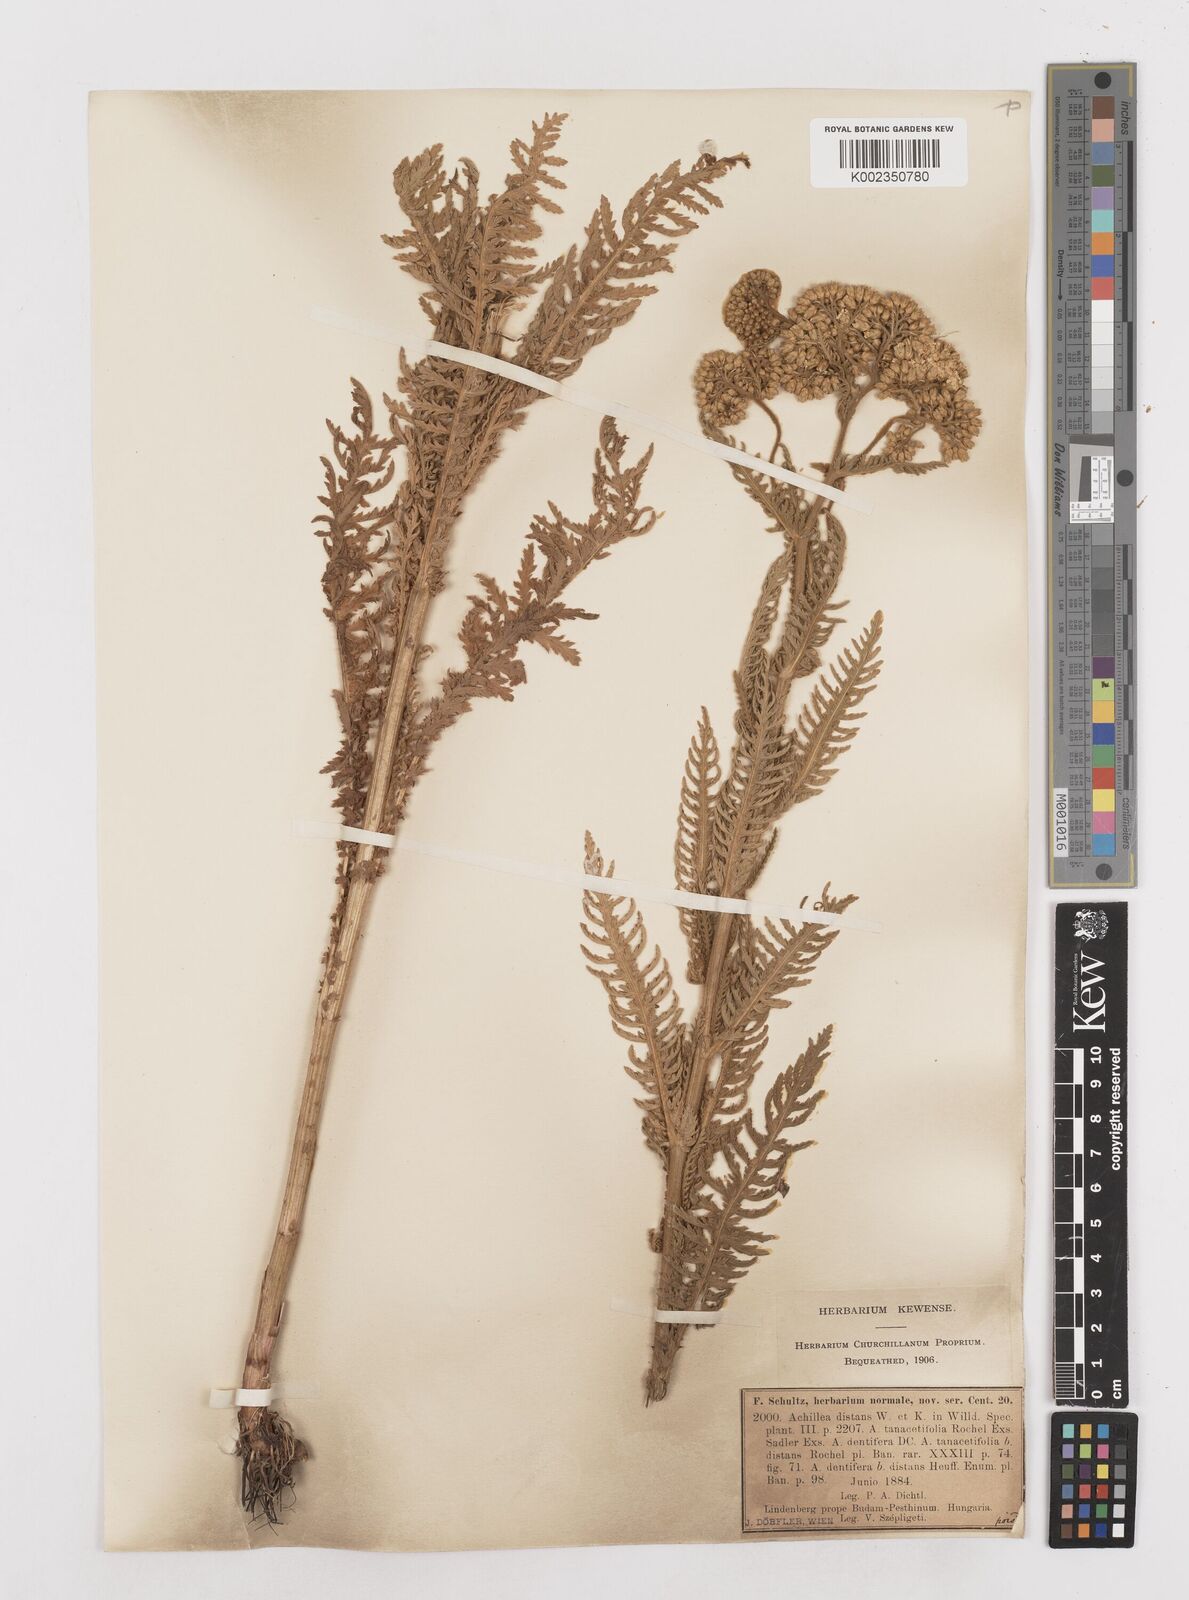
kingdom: Plantae
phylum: Tracheophyta
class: Magnoliopsida
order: Asterales
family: Asteraceae
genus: Achillea
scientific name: Achillea distans
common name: Tall yarrow
